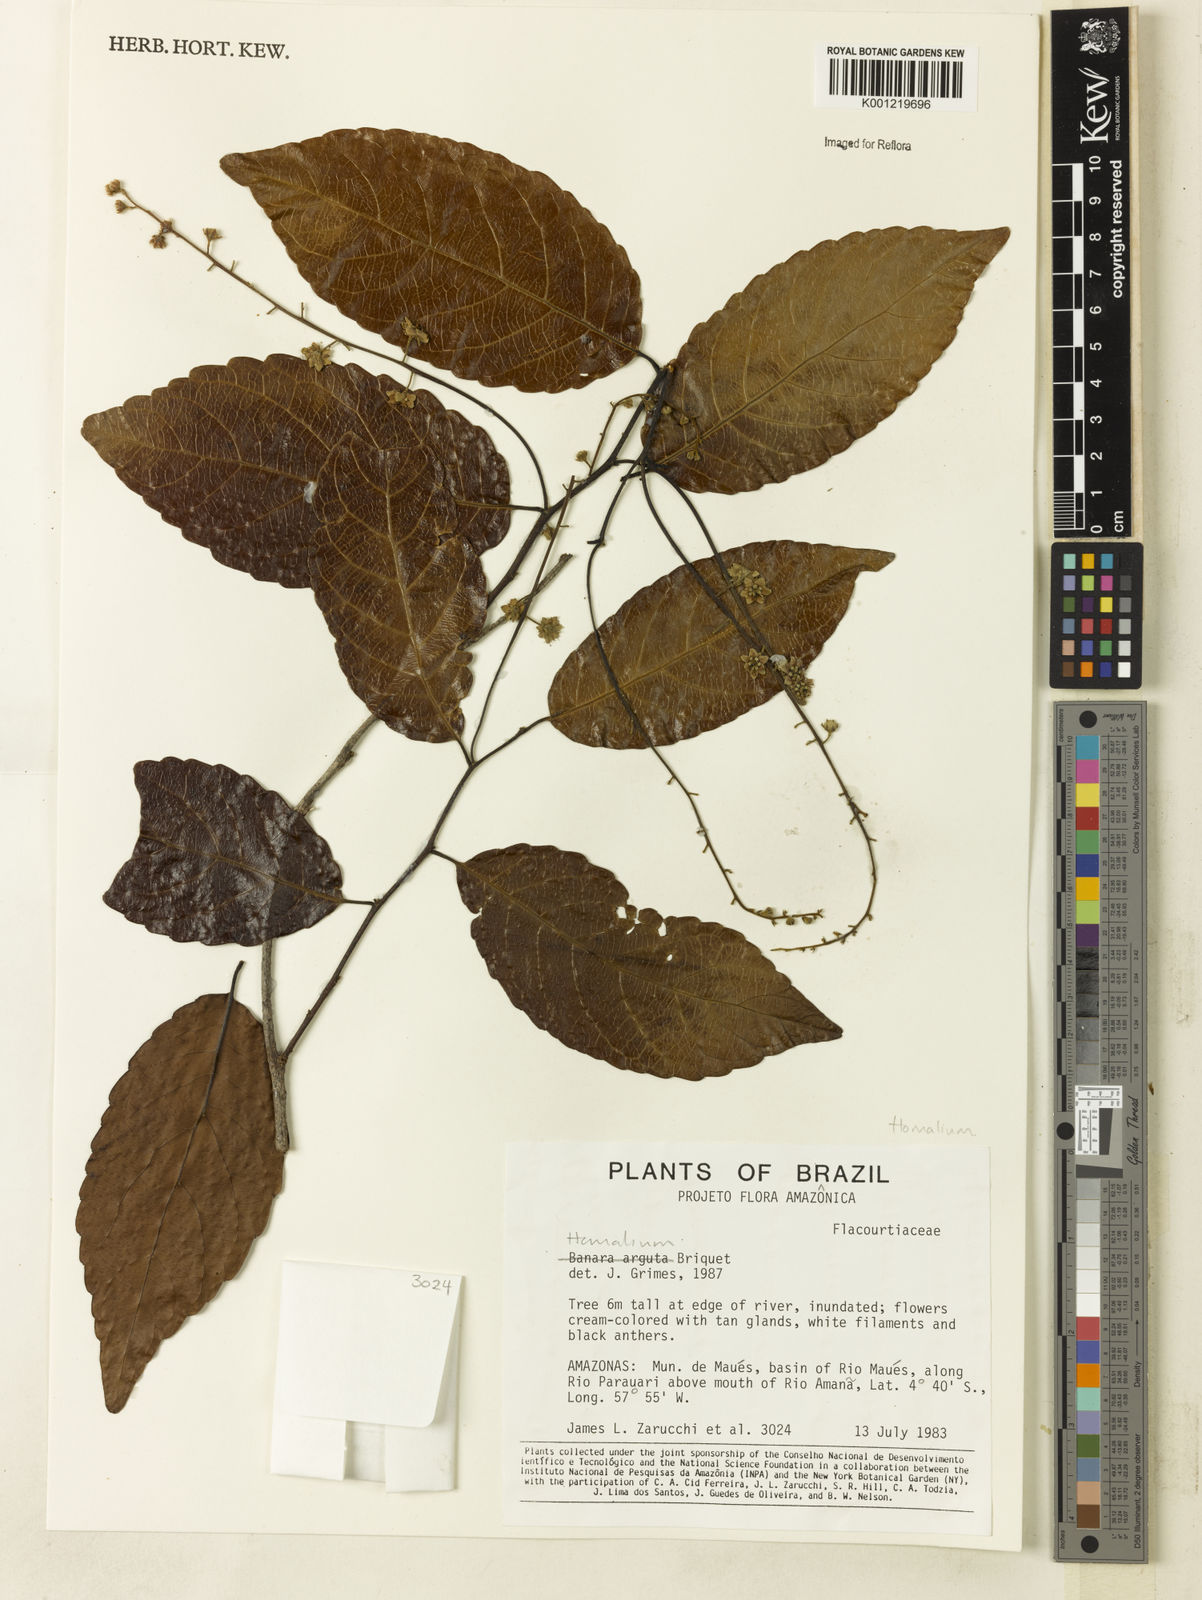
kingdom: Plantae
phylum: Tracheophyta
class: Magnoliopsida
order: Malpighiales
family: Salicaceae
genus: Homalium
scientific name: Homalium
